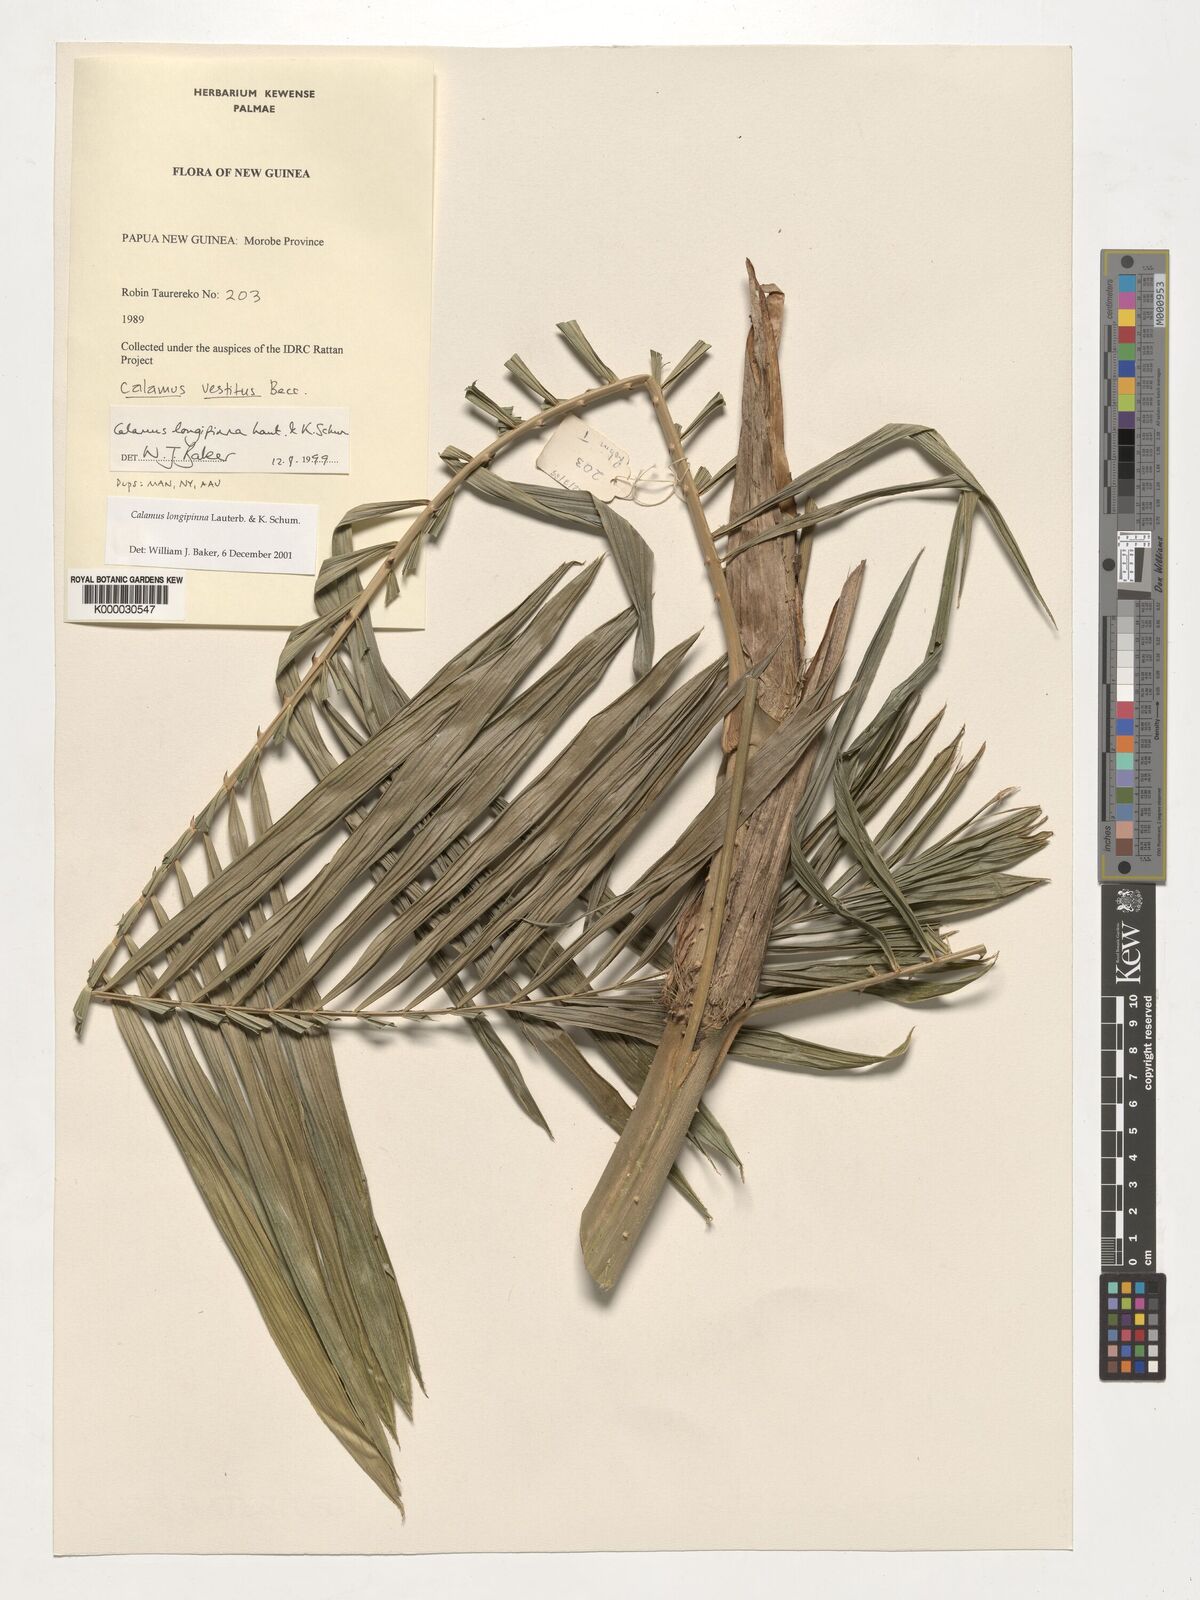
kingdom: Plantae
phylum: Tracheophyta
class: Liliopsida
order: Arecales
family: Arecaceae
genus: Calamus
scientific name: Calamus longipinna
